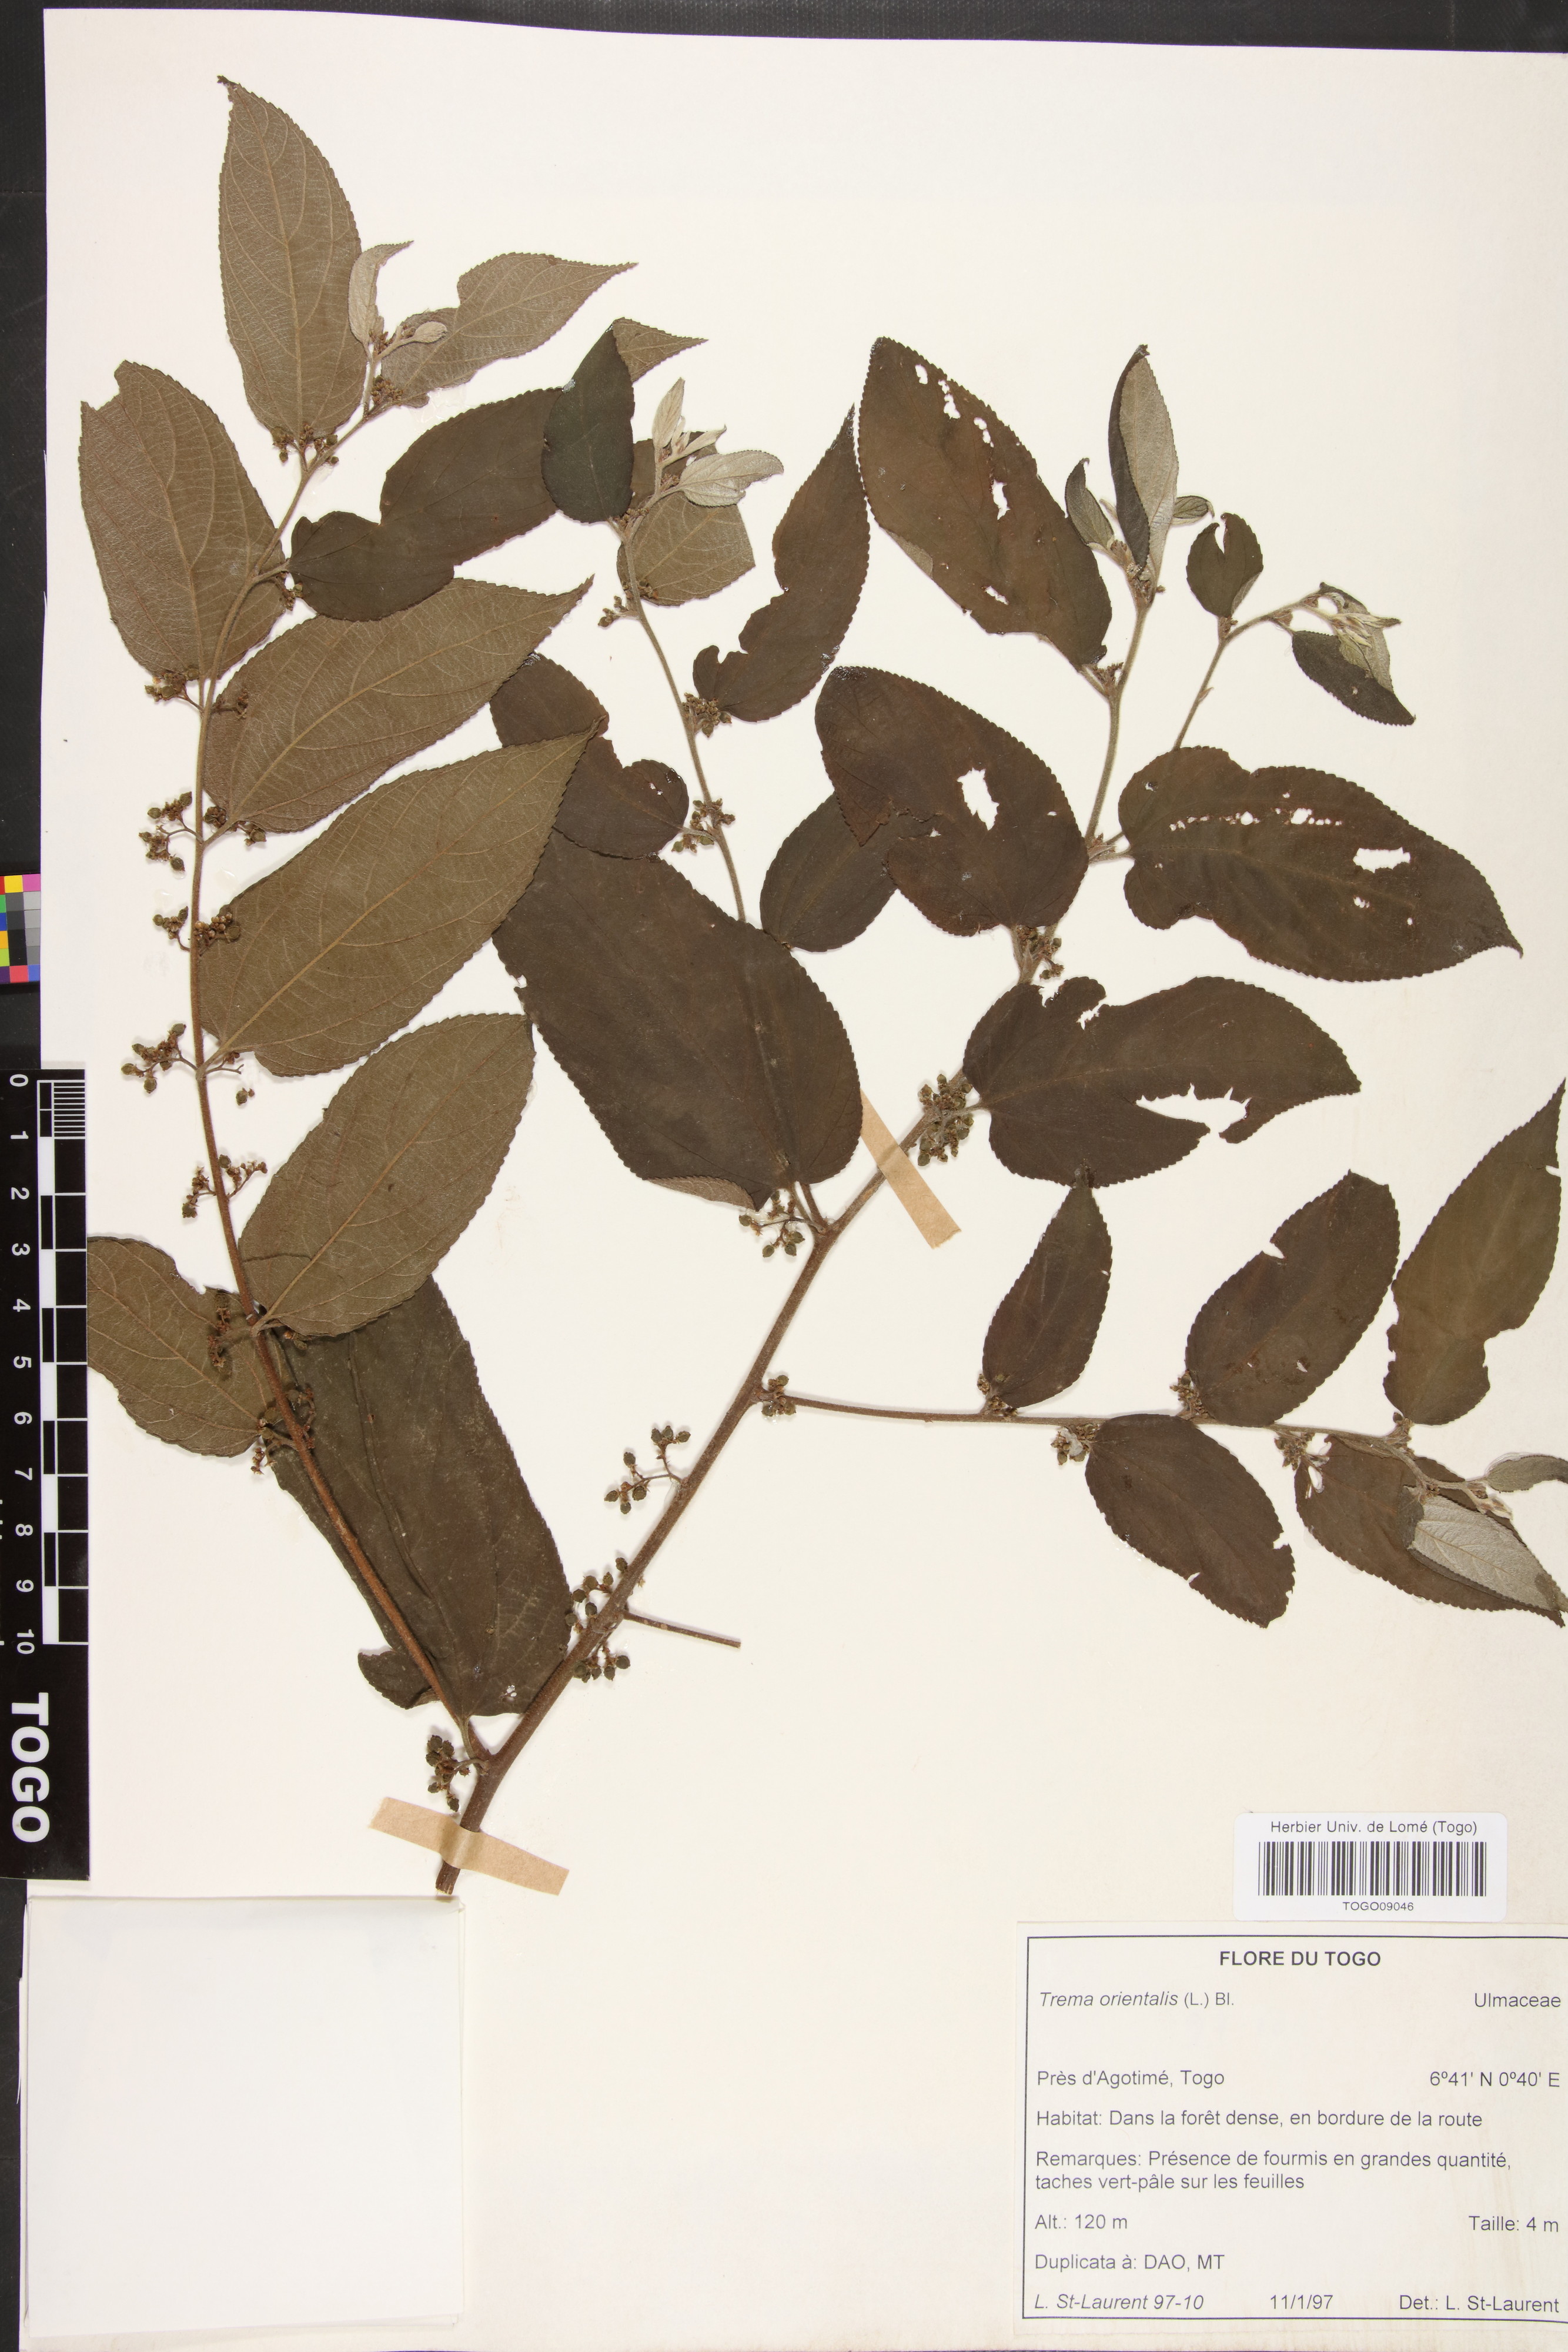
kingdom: Plantae
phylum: Tracheophyta
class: Magnoliopsida
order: Rosales
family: Cannabaceae
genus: Trema
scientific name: Trema orientale
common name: Indian charcoal tree
